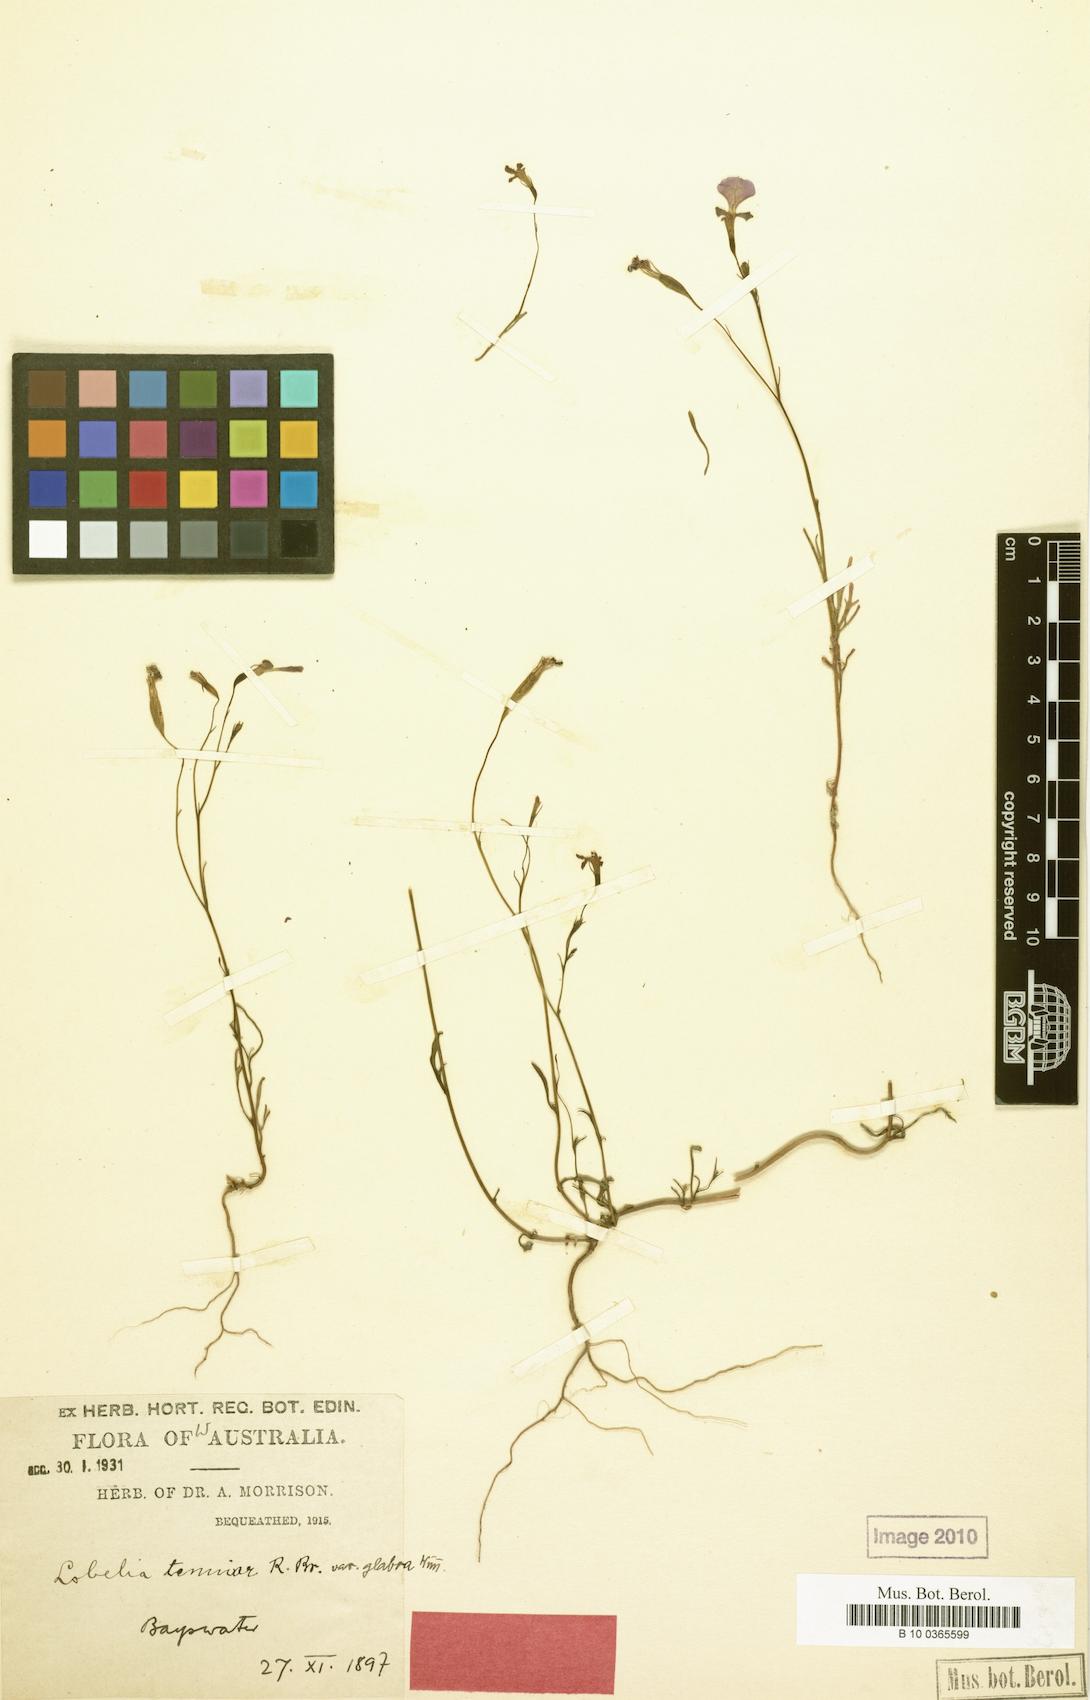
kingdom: Plantae
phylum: Tracheophyta
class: Magnoliopsida
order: Asterales
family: Campanulaceae
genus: Lobelia
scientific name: Lobelia tenuior
